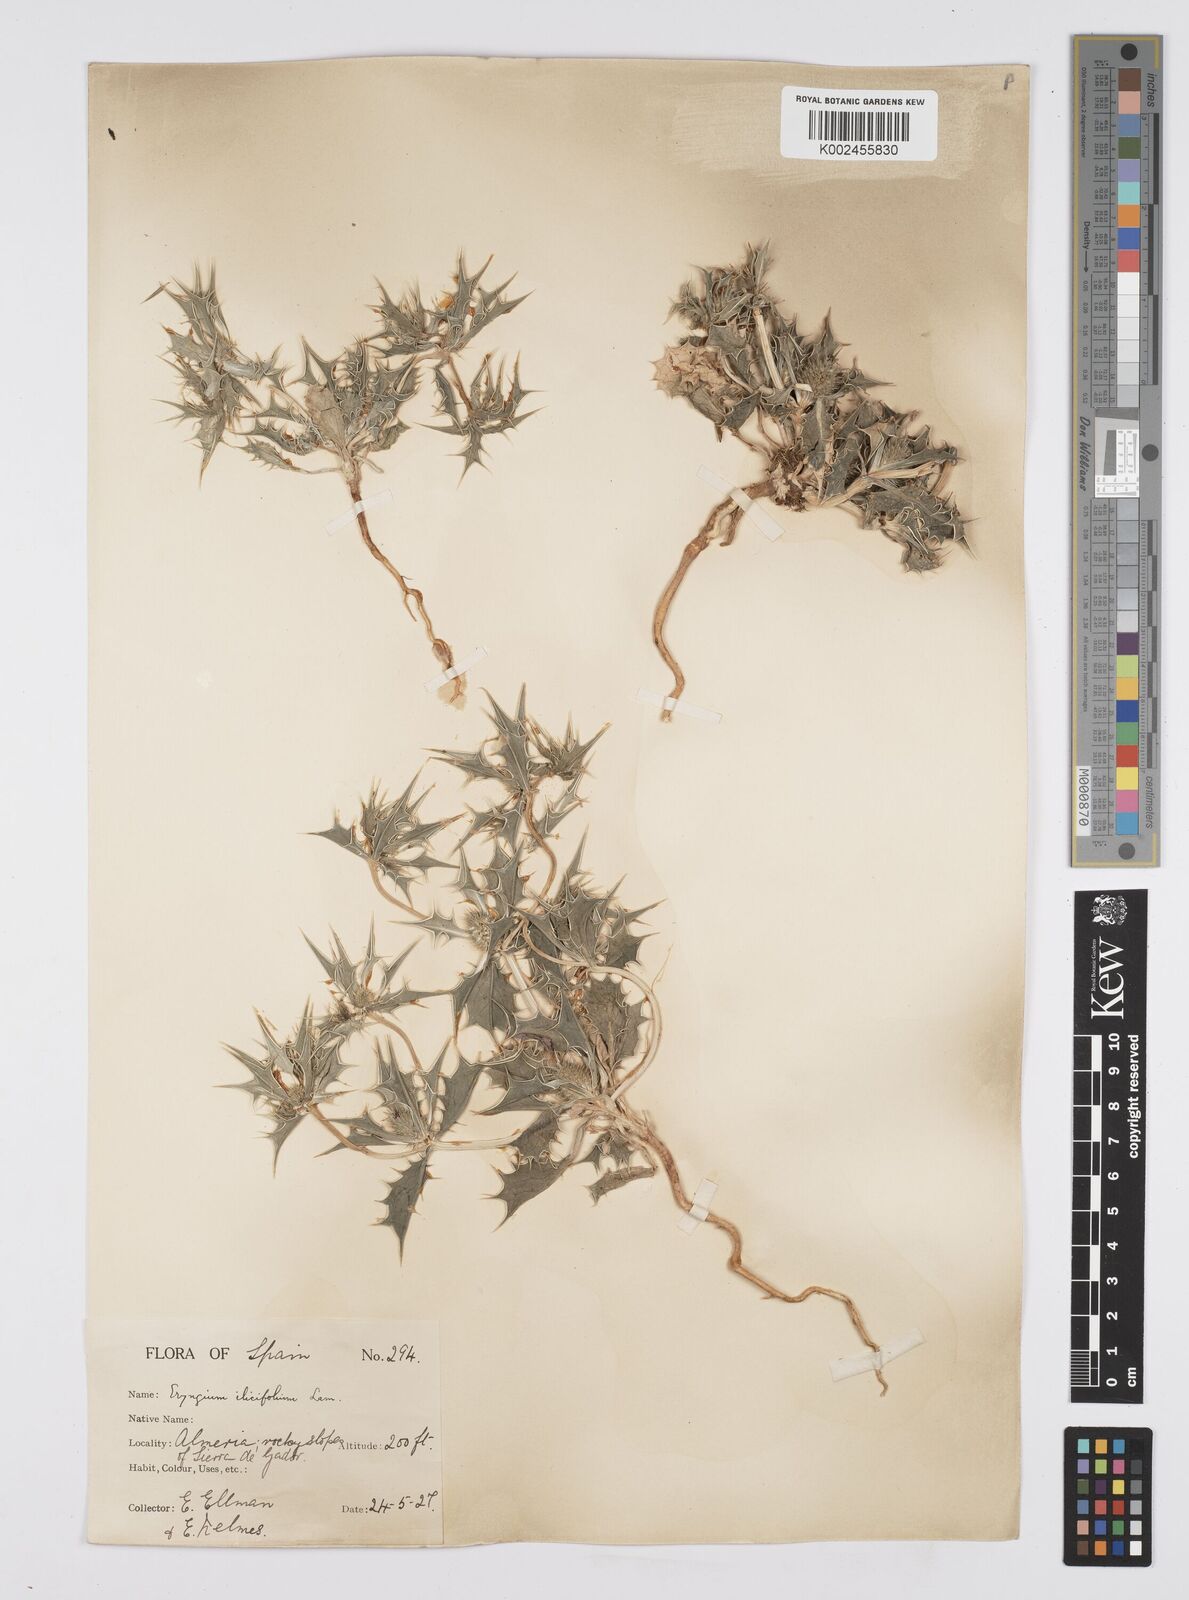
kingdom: Plantae
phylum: Tracheophyta
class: Magnoliopsida
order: Apiales
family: Apiaceae
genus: Eryngium
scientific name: Eryngium
